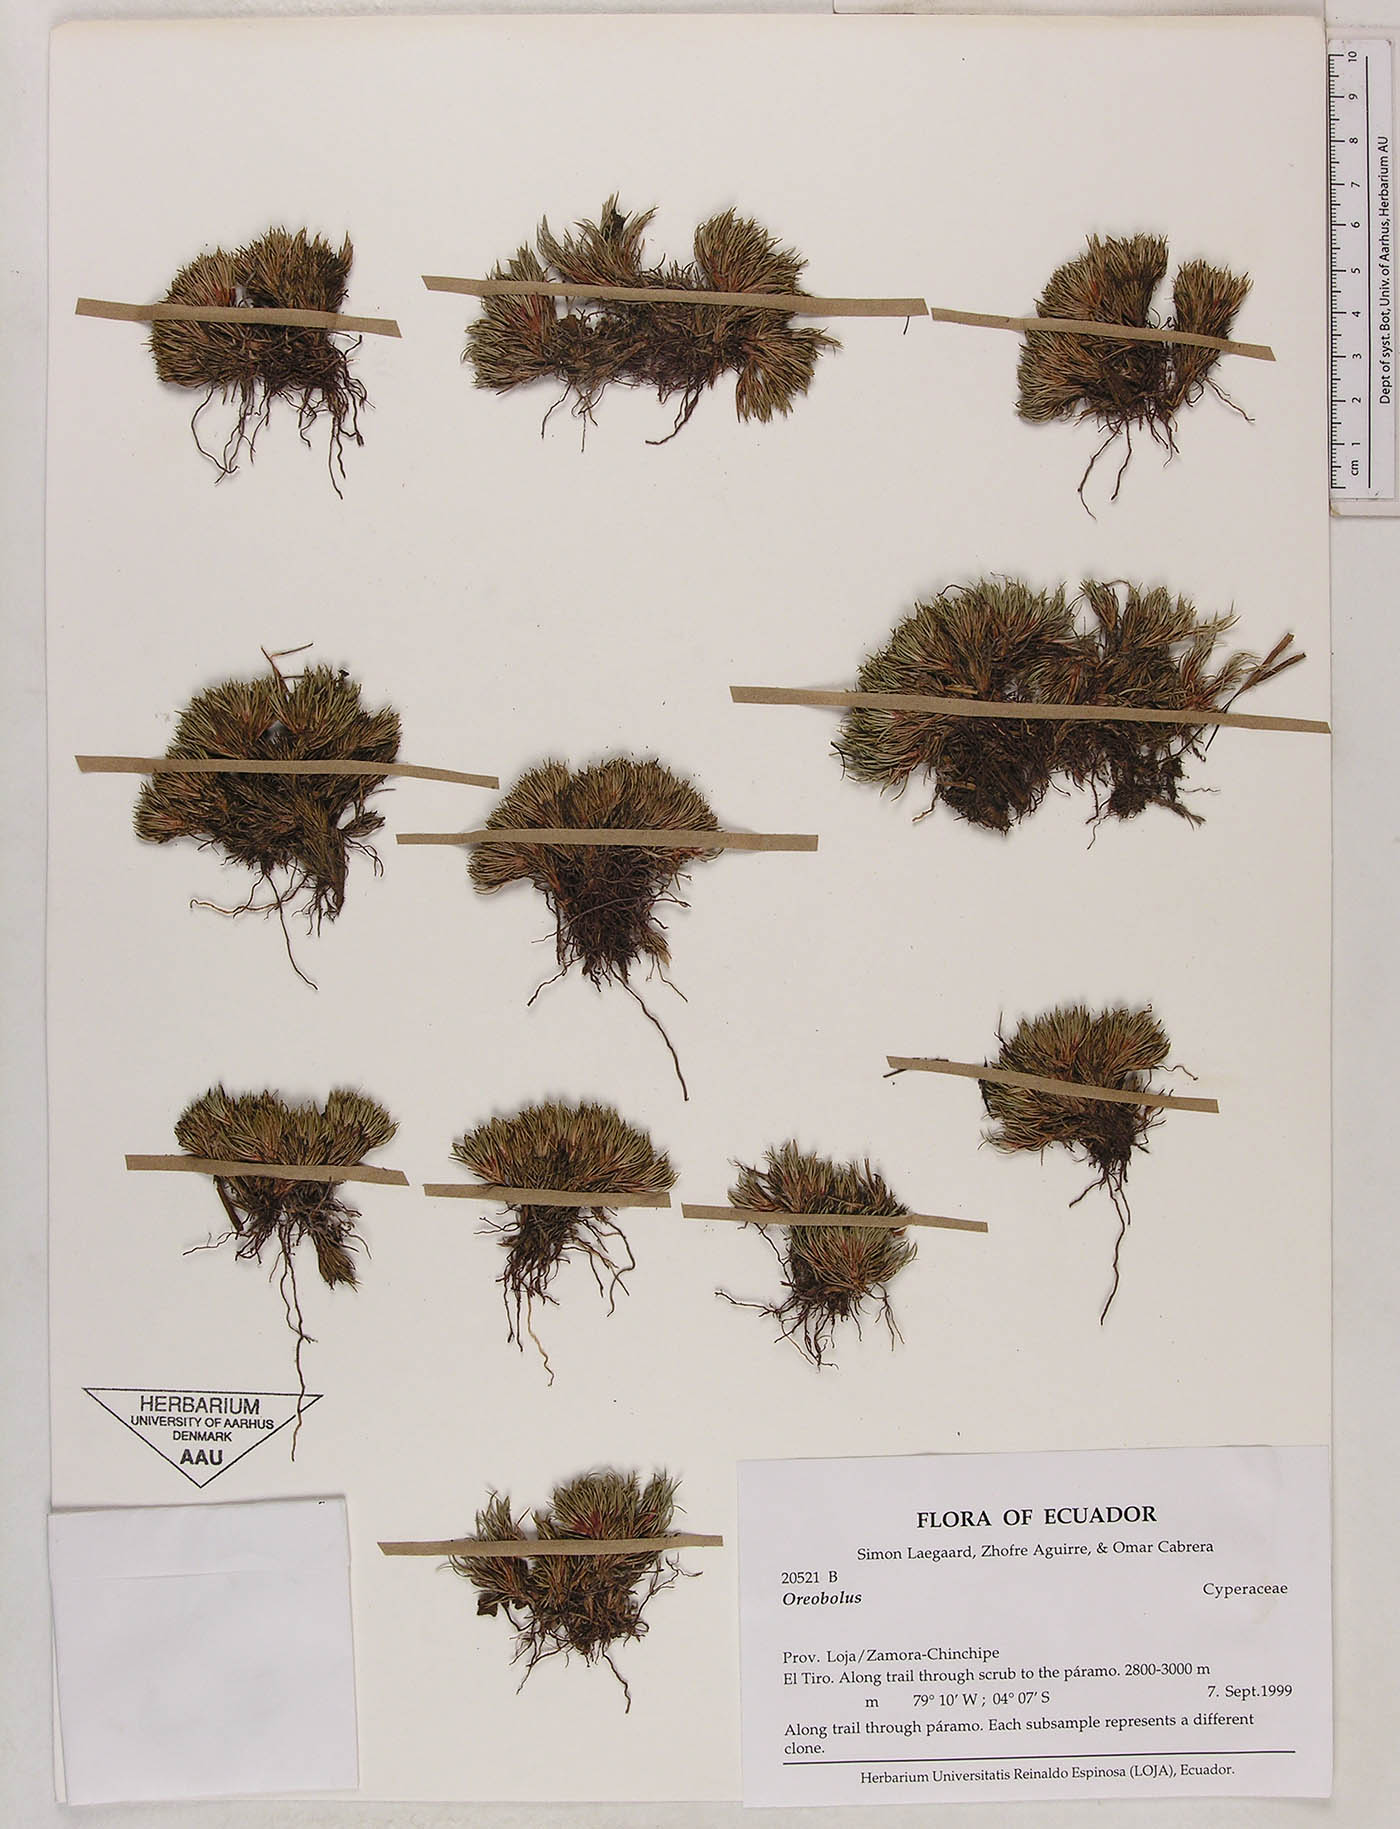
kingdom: Plantae
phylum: Tracheophyta
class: Liliopsida
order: Poales
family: Cyperaceae
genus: Oreobolus
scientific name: Oreobolus
